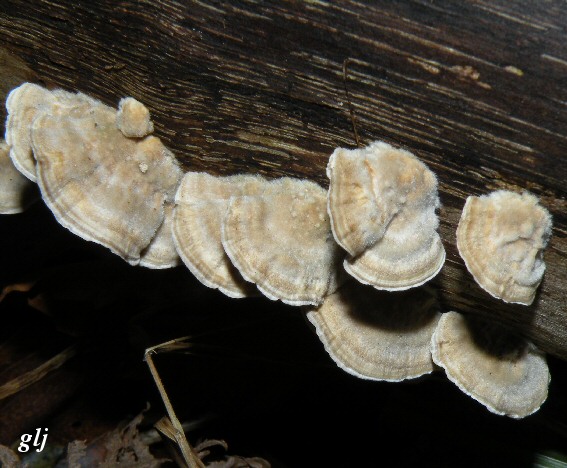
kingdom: Fungi
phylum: Basidiomycota
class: Agaricomycetes
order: Polyporales
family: Polyporaceae
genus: Trametes
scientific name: Trametes hirsuta
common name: håret læderporesvamp
